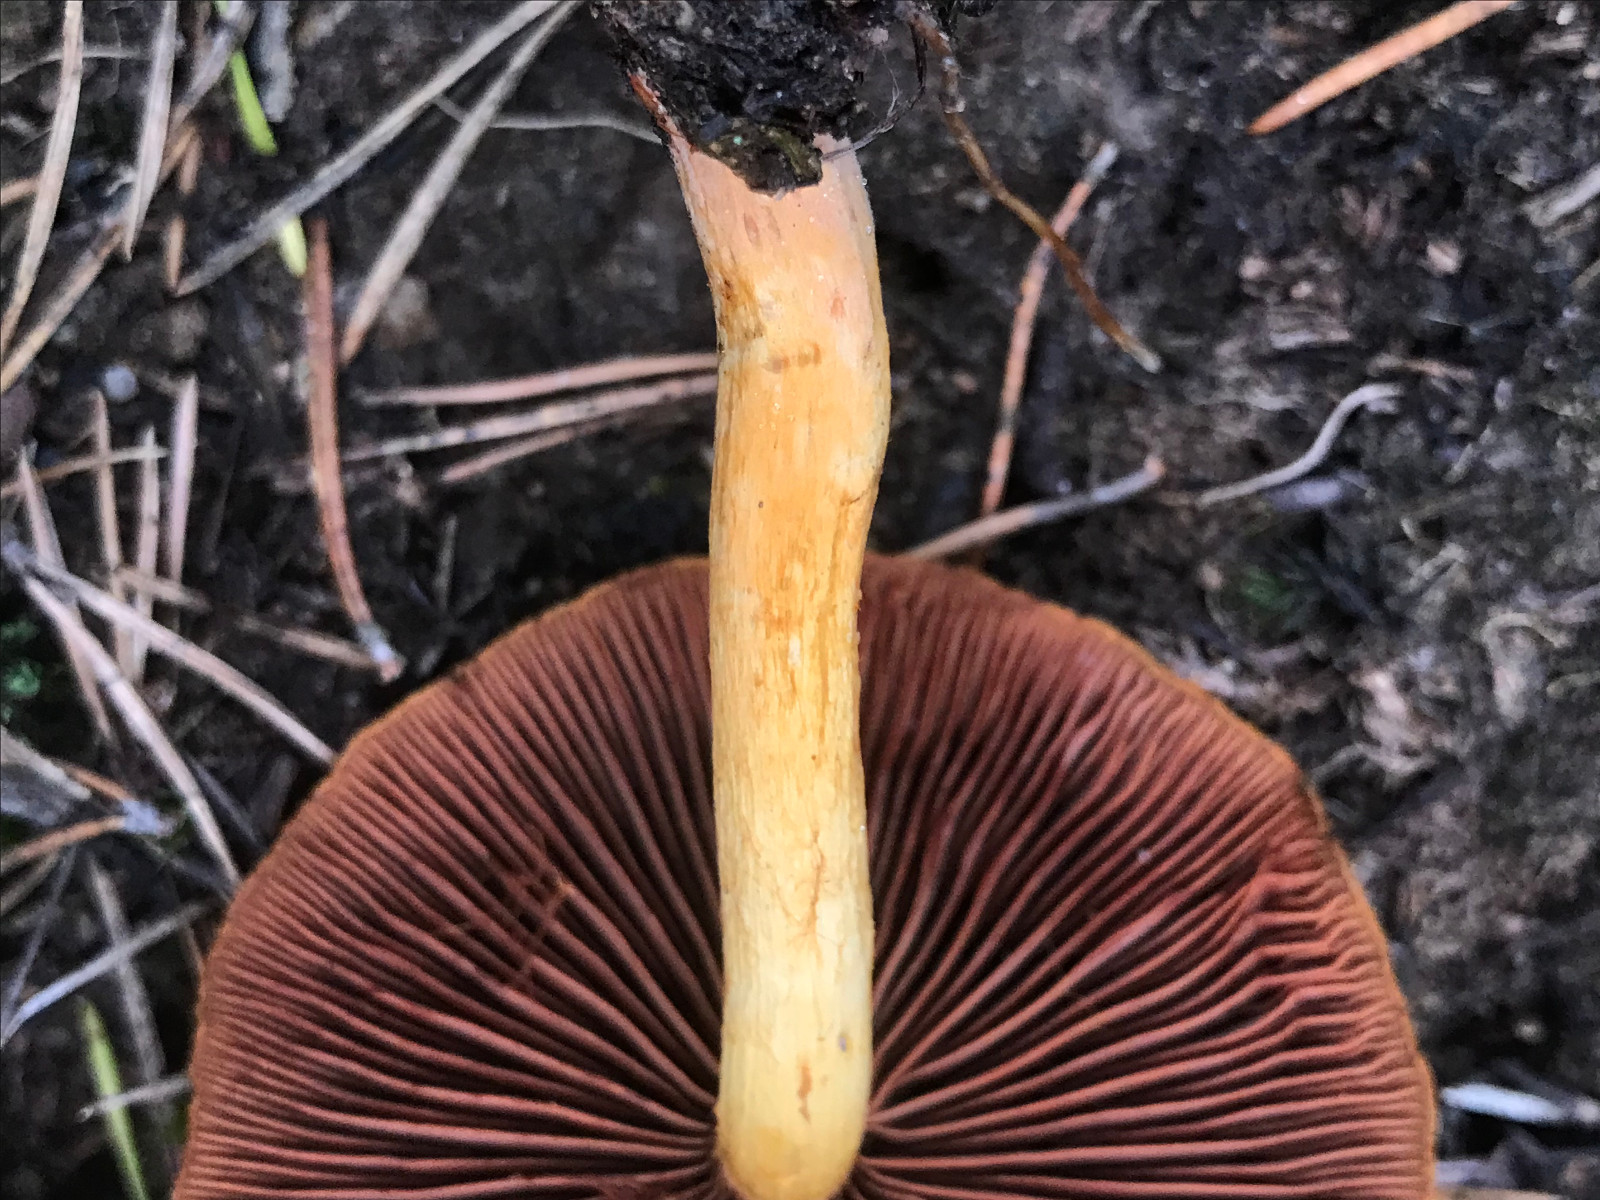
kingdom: Fungi
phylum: Basidiomycota
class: Agaricomycetes
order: Agaricales
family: Cortinariaceae
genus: Cortinarius
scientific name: Cortinarius
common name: cinnoberbladet slørhat
